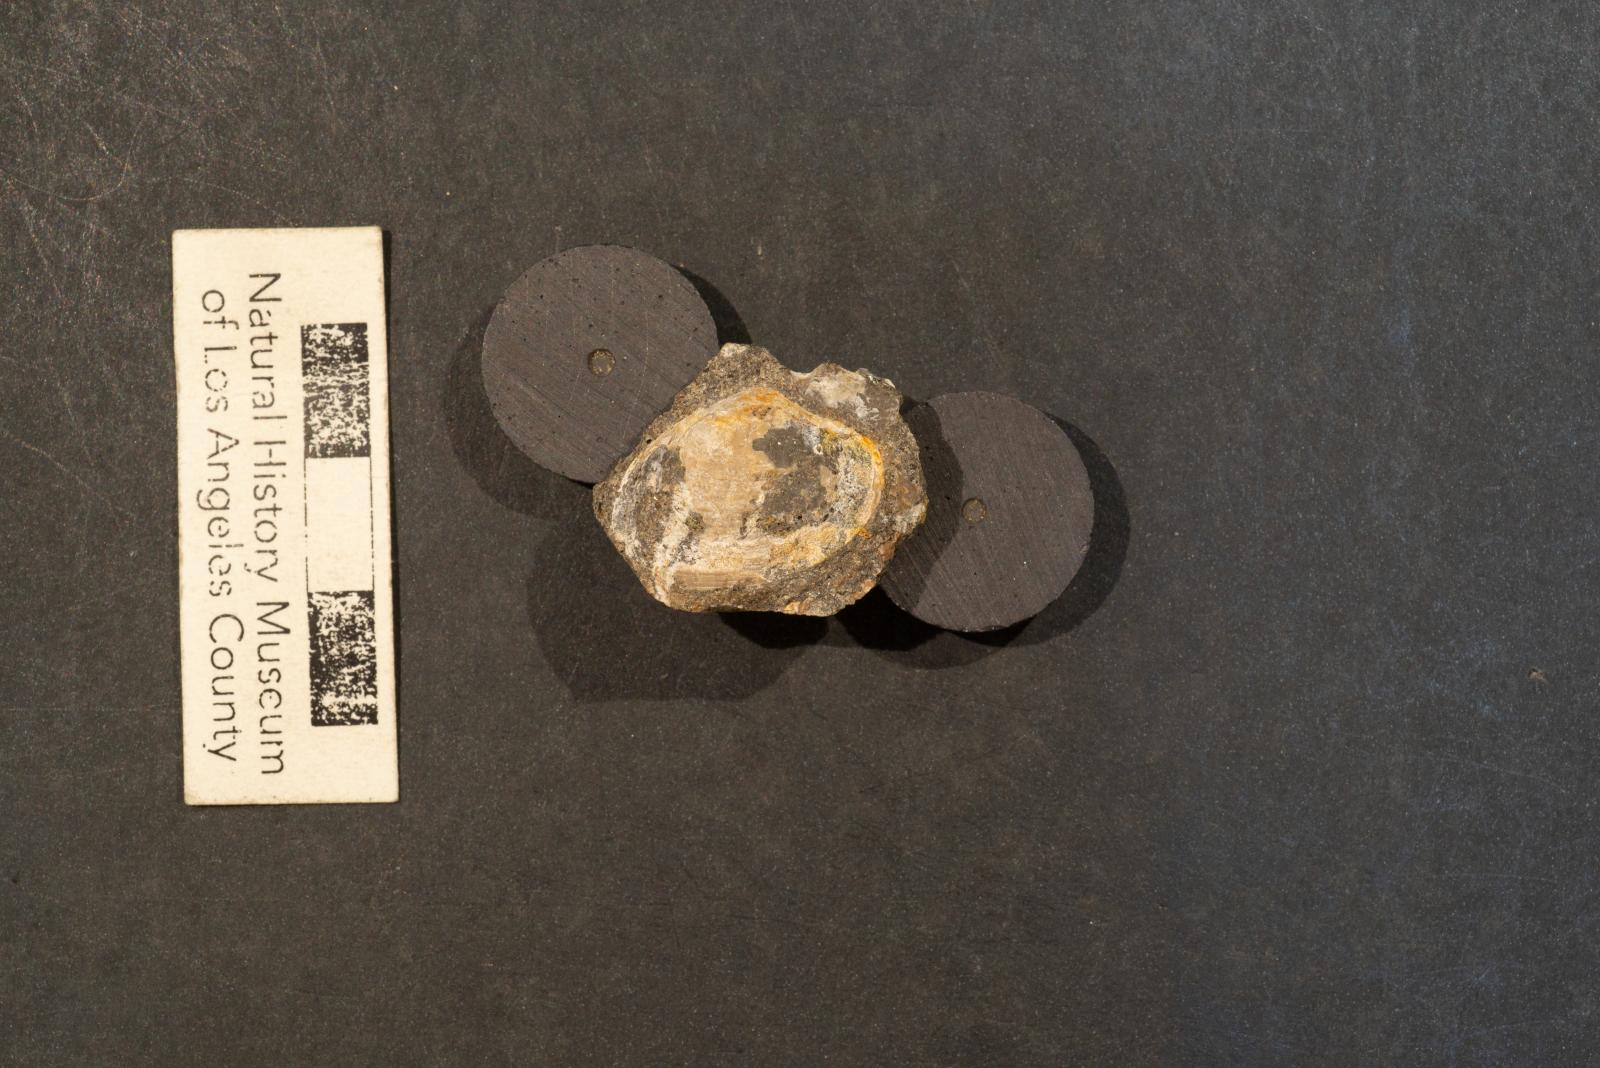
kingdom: Animalia
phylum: Mollusca
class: Bivalvia
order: Venerida
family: Veneridae
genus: Loxo
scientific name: Loxo decore
